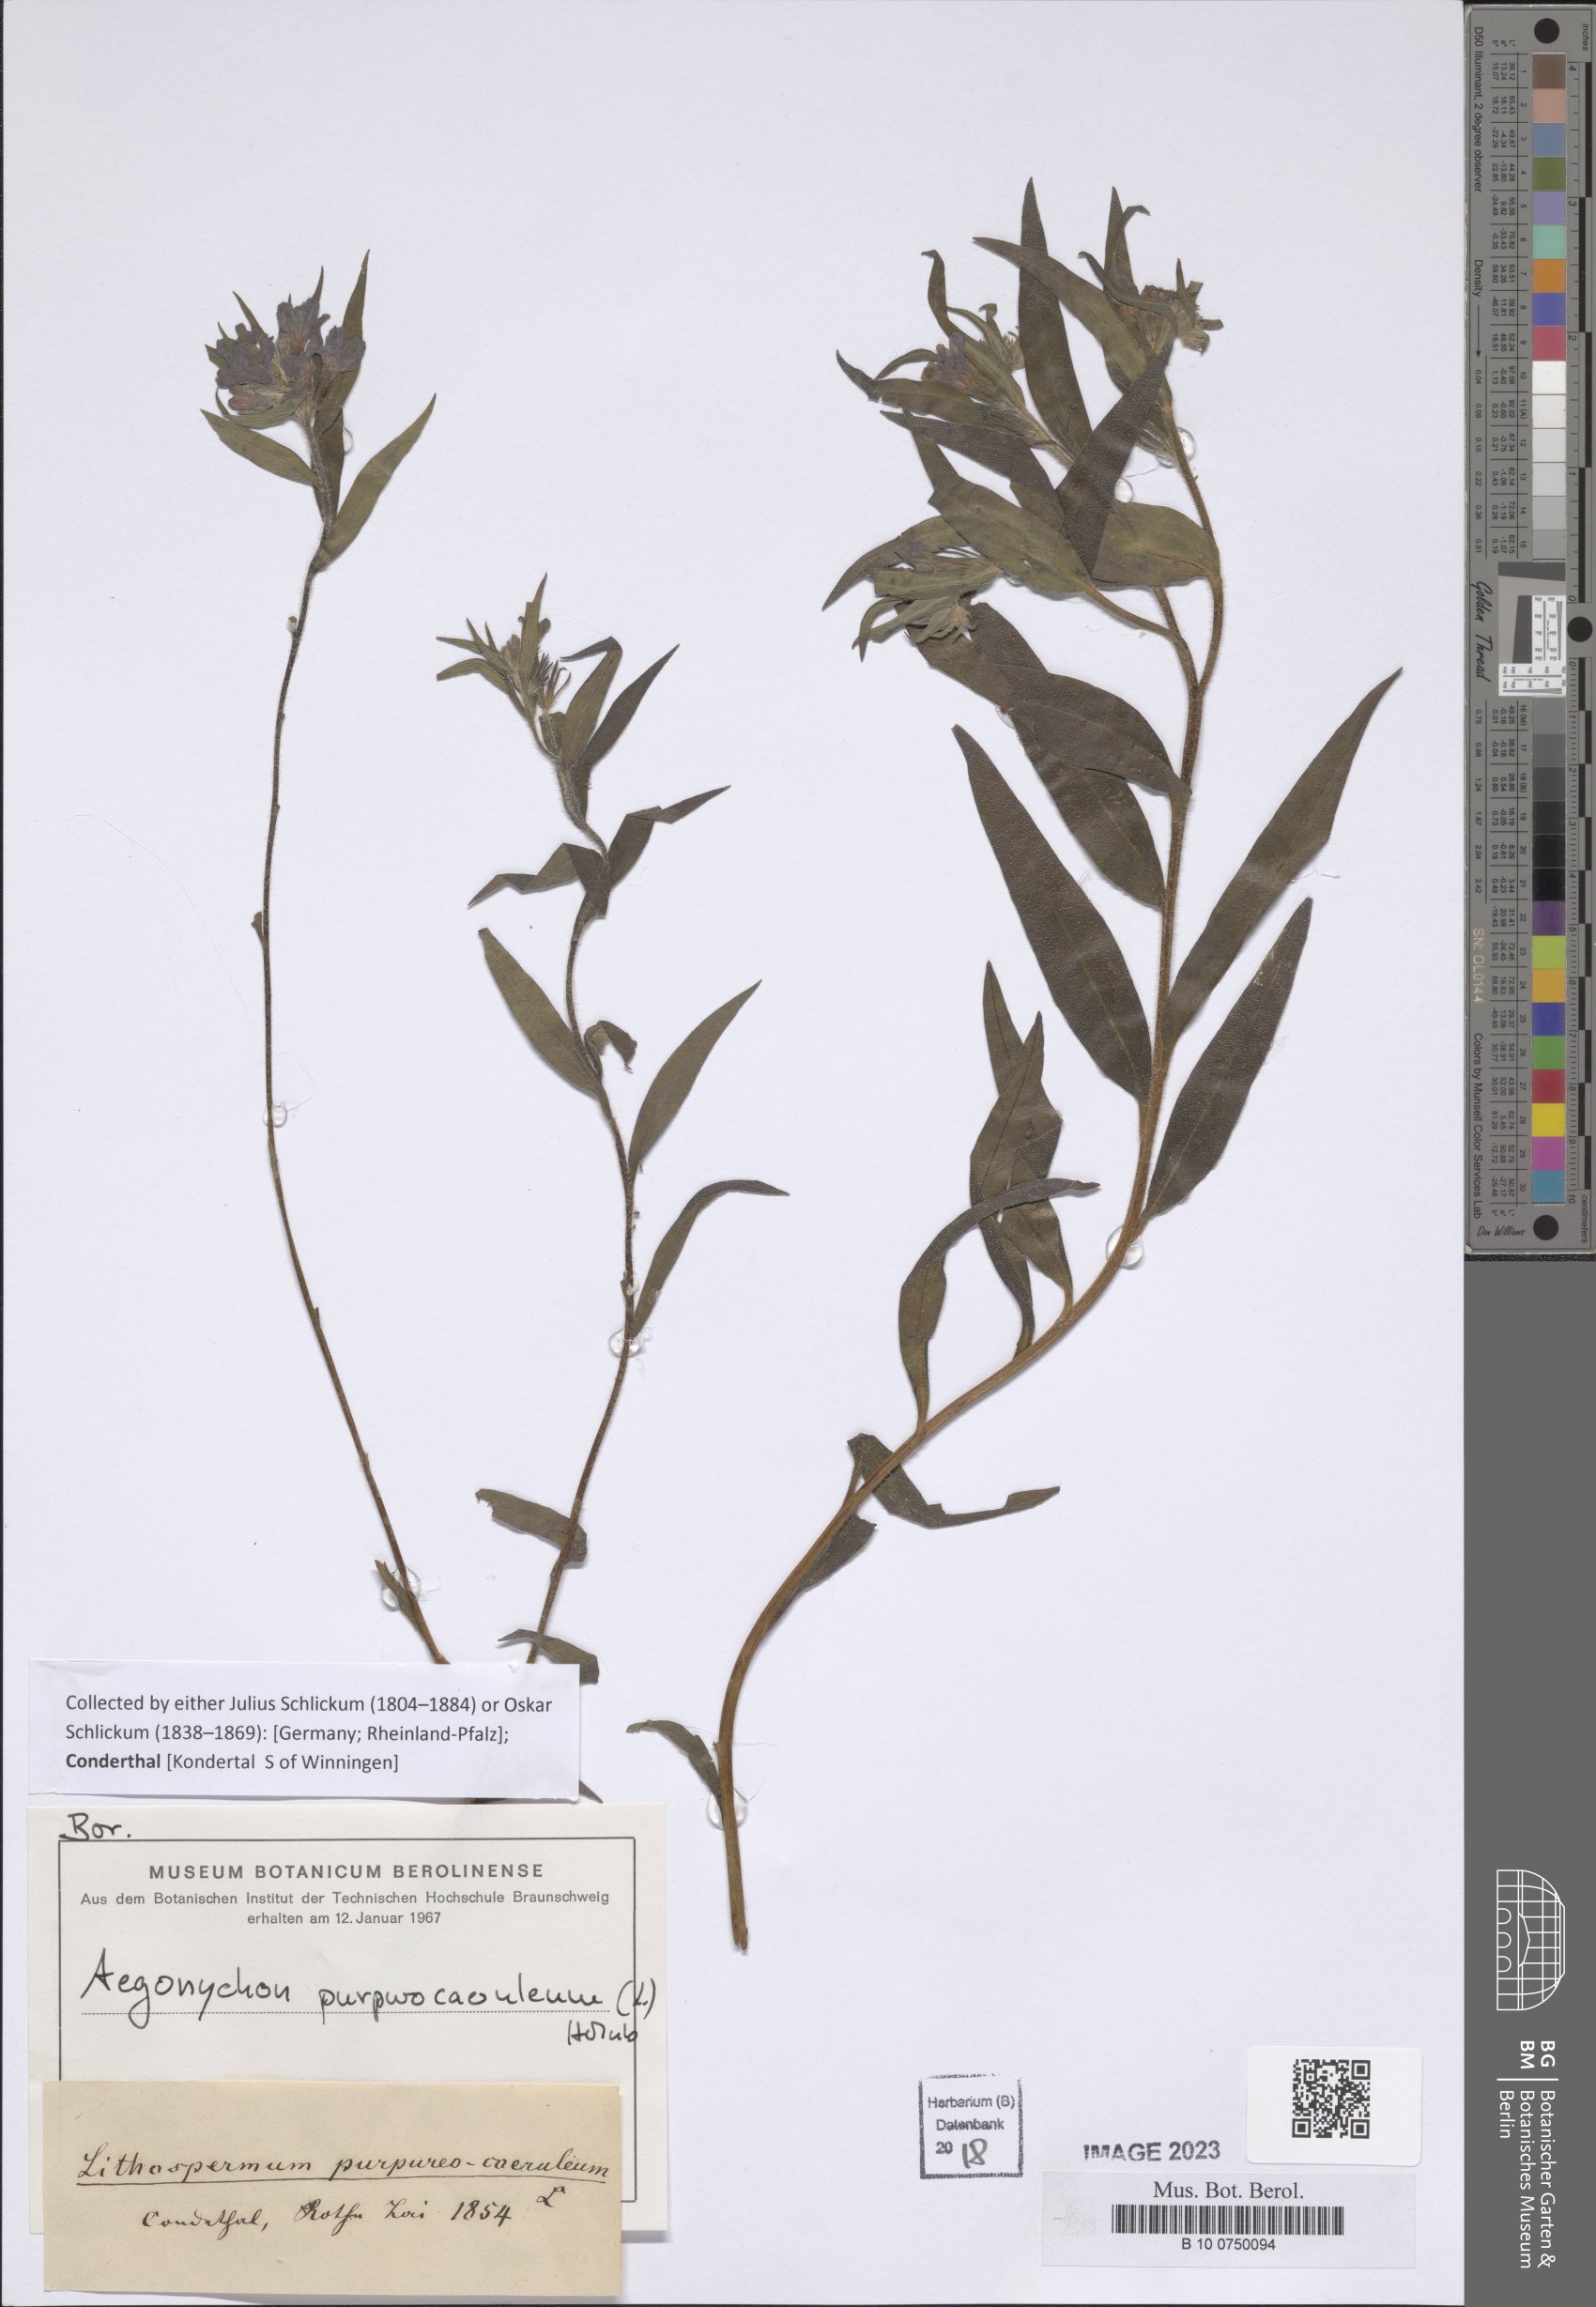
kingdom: Plantae
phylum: Tracheophyta
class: Magnoliopsida
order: Boraginales
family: Boraginaceae
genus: Aegonychon
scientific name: Aegonychon purpurocaeruleum
